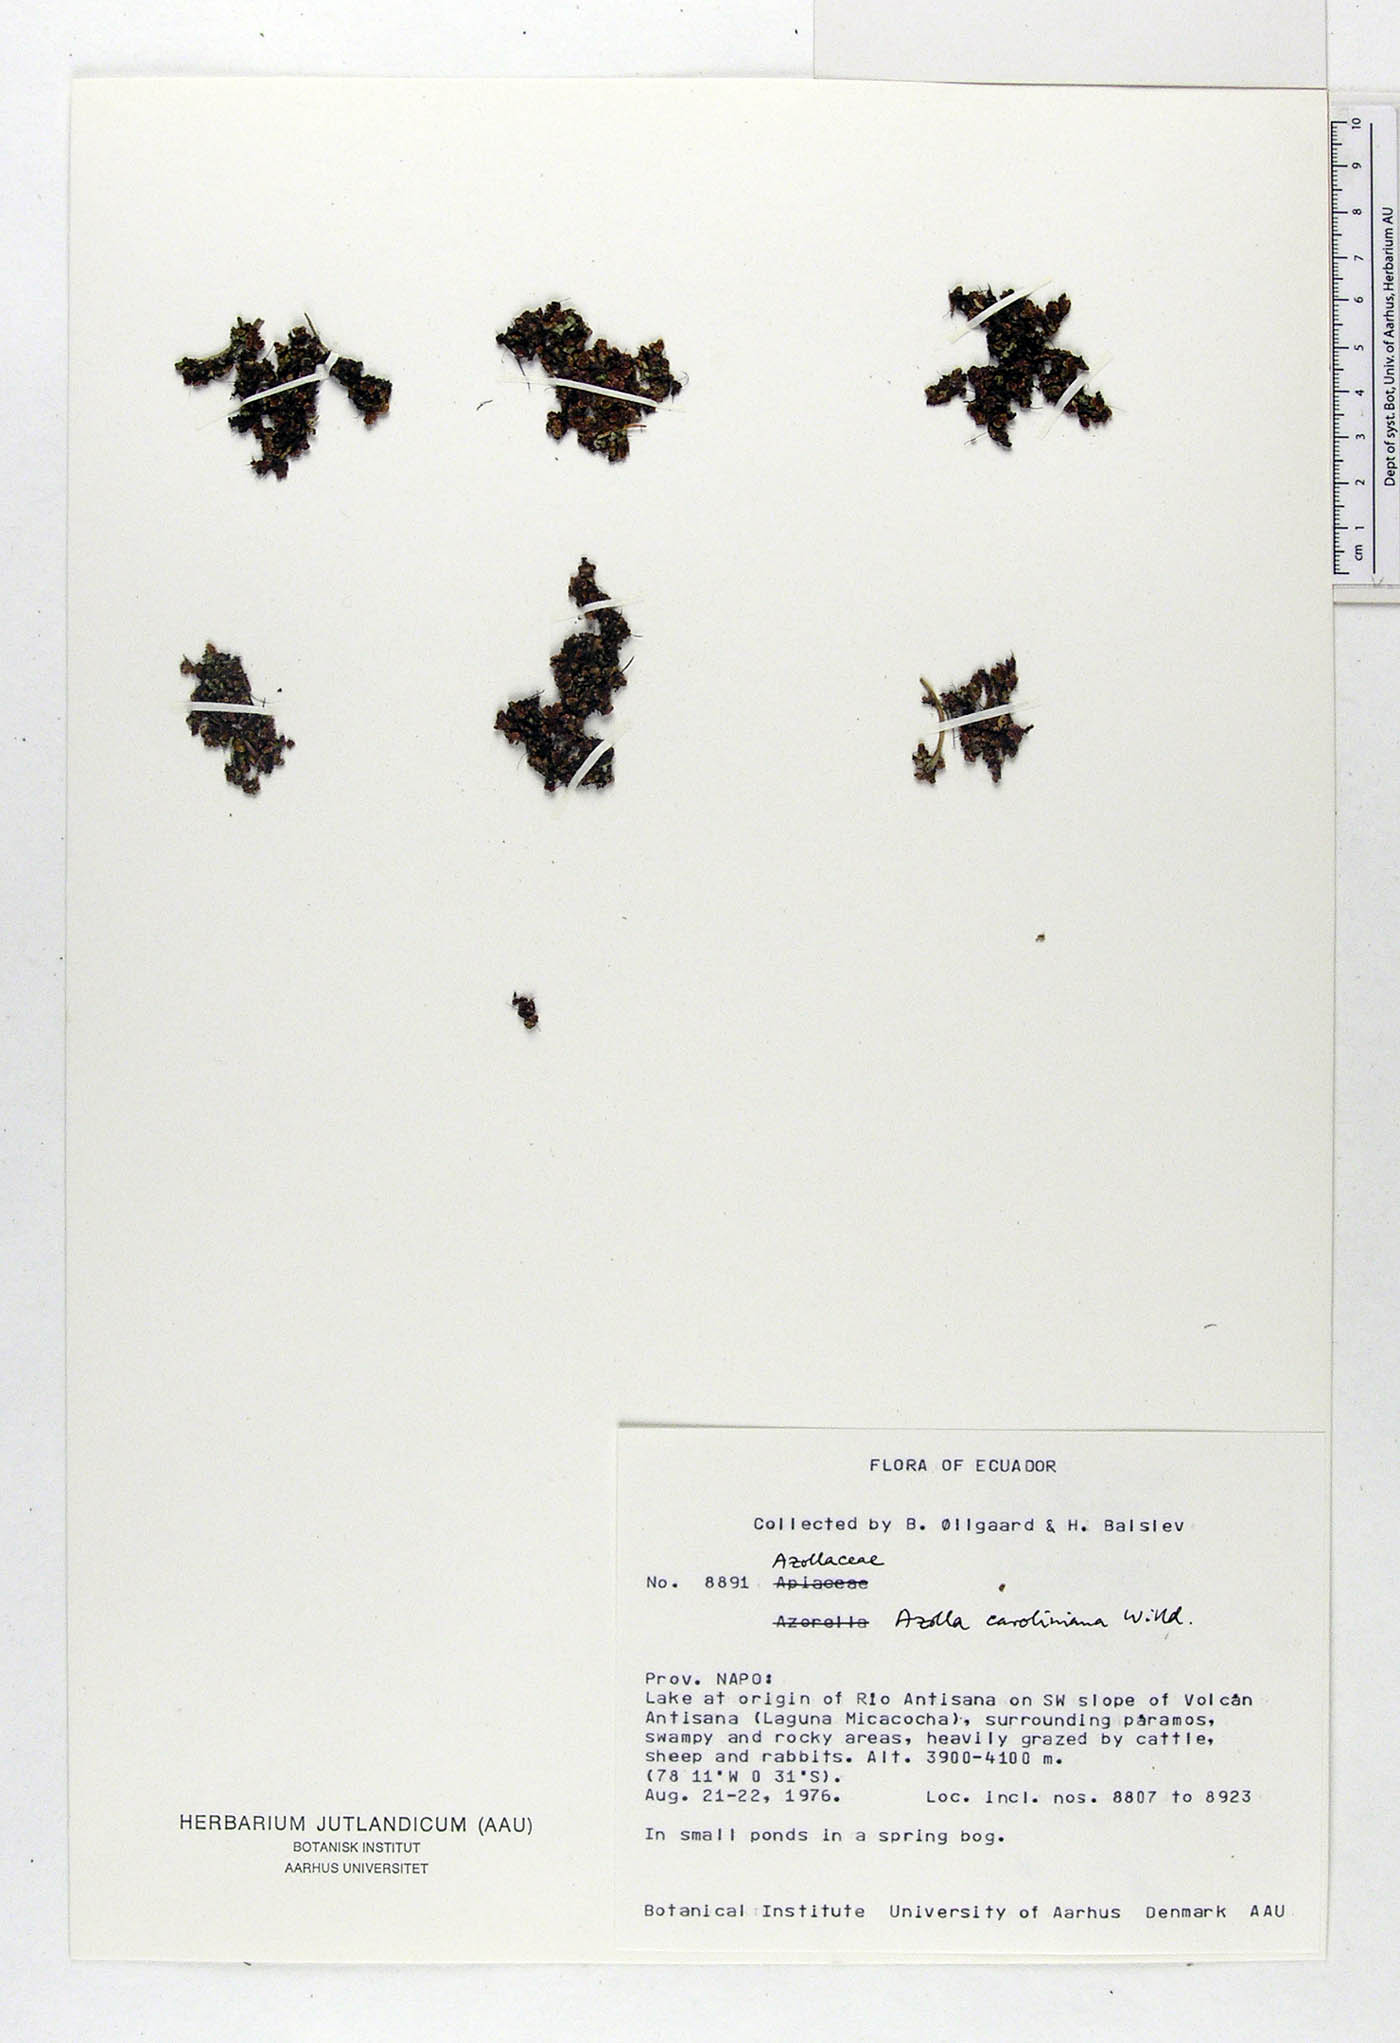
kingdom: Plantae
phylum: Tracheophyta
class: Polypodiopsida
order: Salviniales
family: Salviniaceae
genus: Azolla
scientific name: Azolla caroliniana
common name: Carolina mosquitofern
